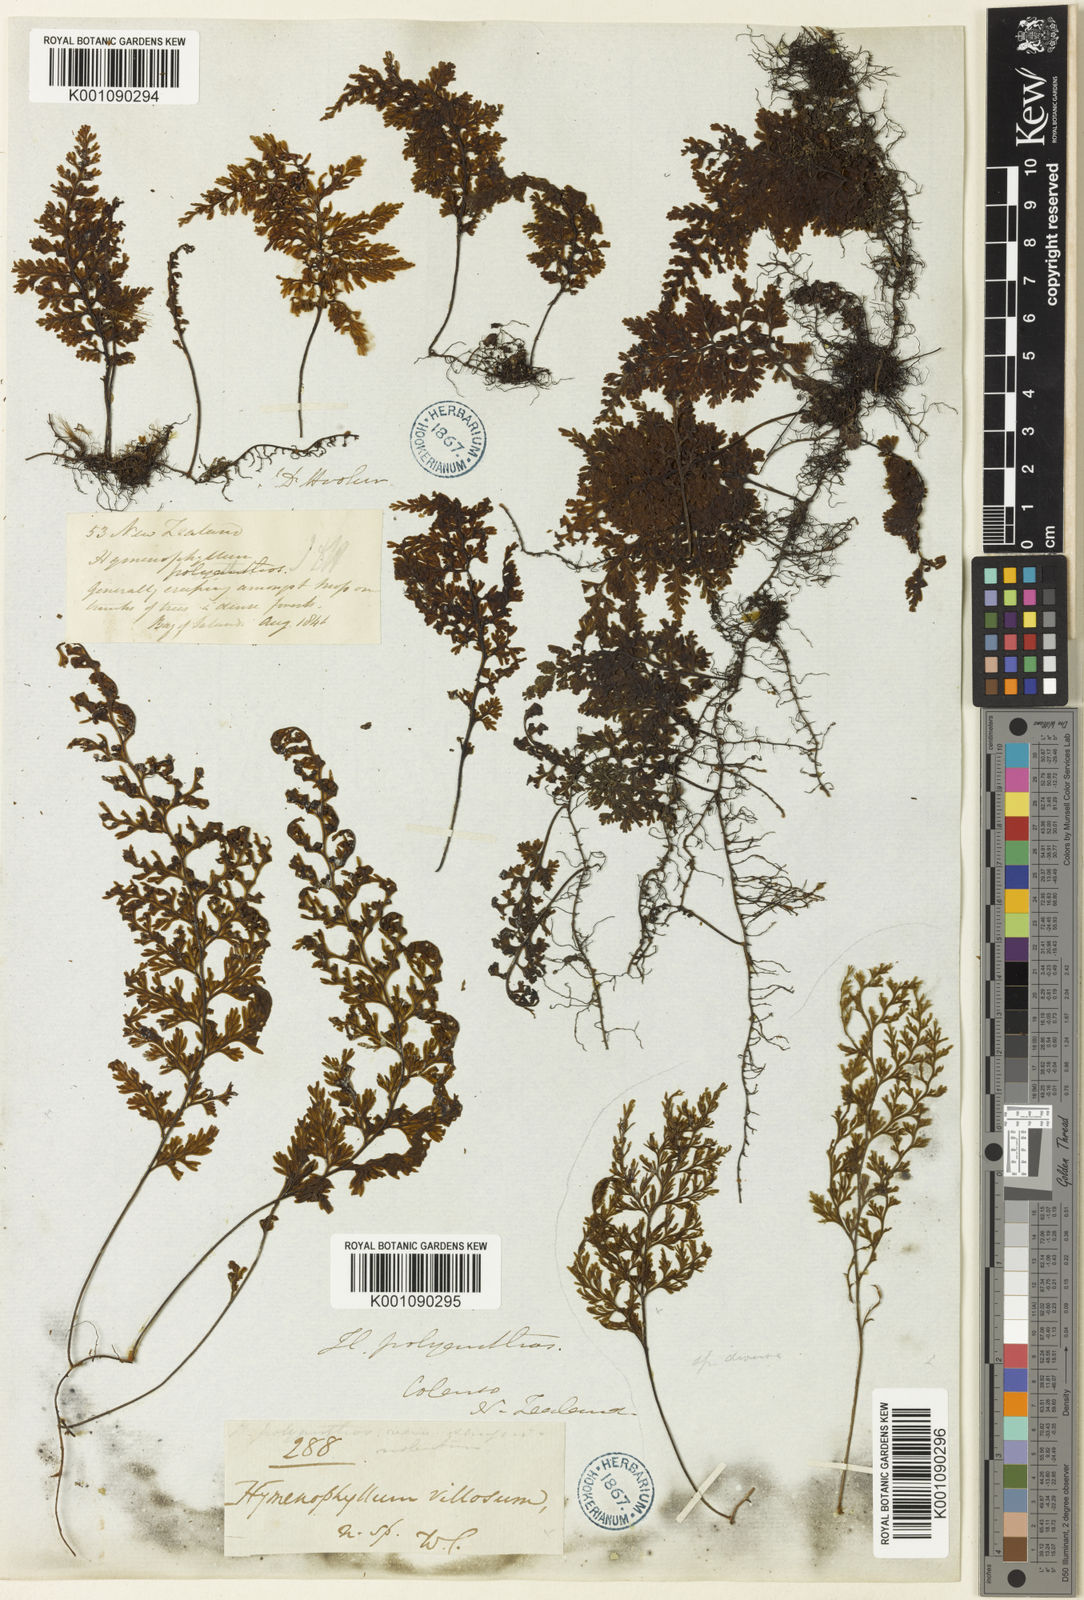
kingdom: Plantae
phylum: Tracheophyta
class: Polypodiopsida
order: Hymenophyllales
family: Hymenophyllaceae
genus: Hymenophyllum
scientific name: Hymenophyllum villosum
